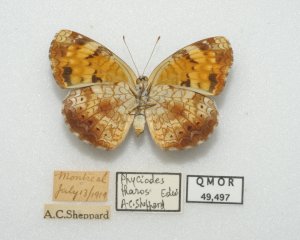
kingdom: Animalia
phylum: Arthropoda
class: Insecta
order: Lepidoptera
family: Nymphalidae
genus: Phyciodes
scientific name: Phyciodes tharos
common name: Northern Crescent
